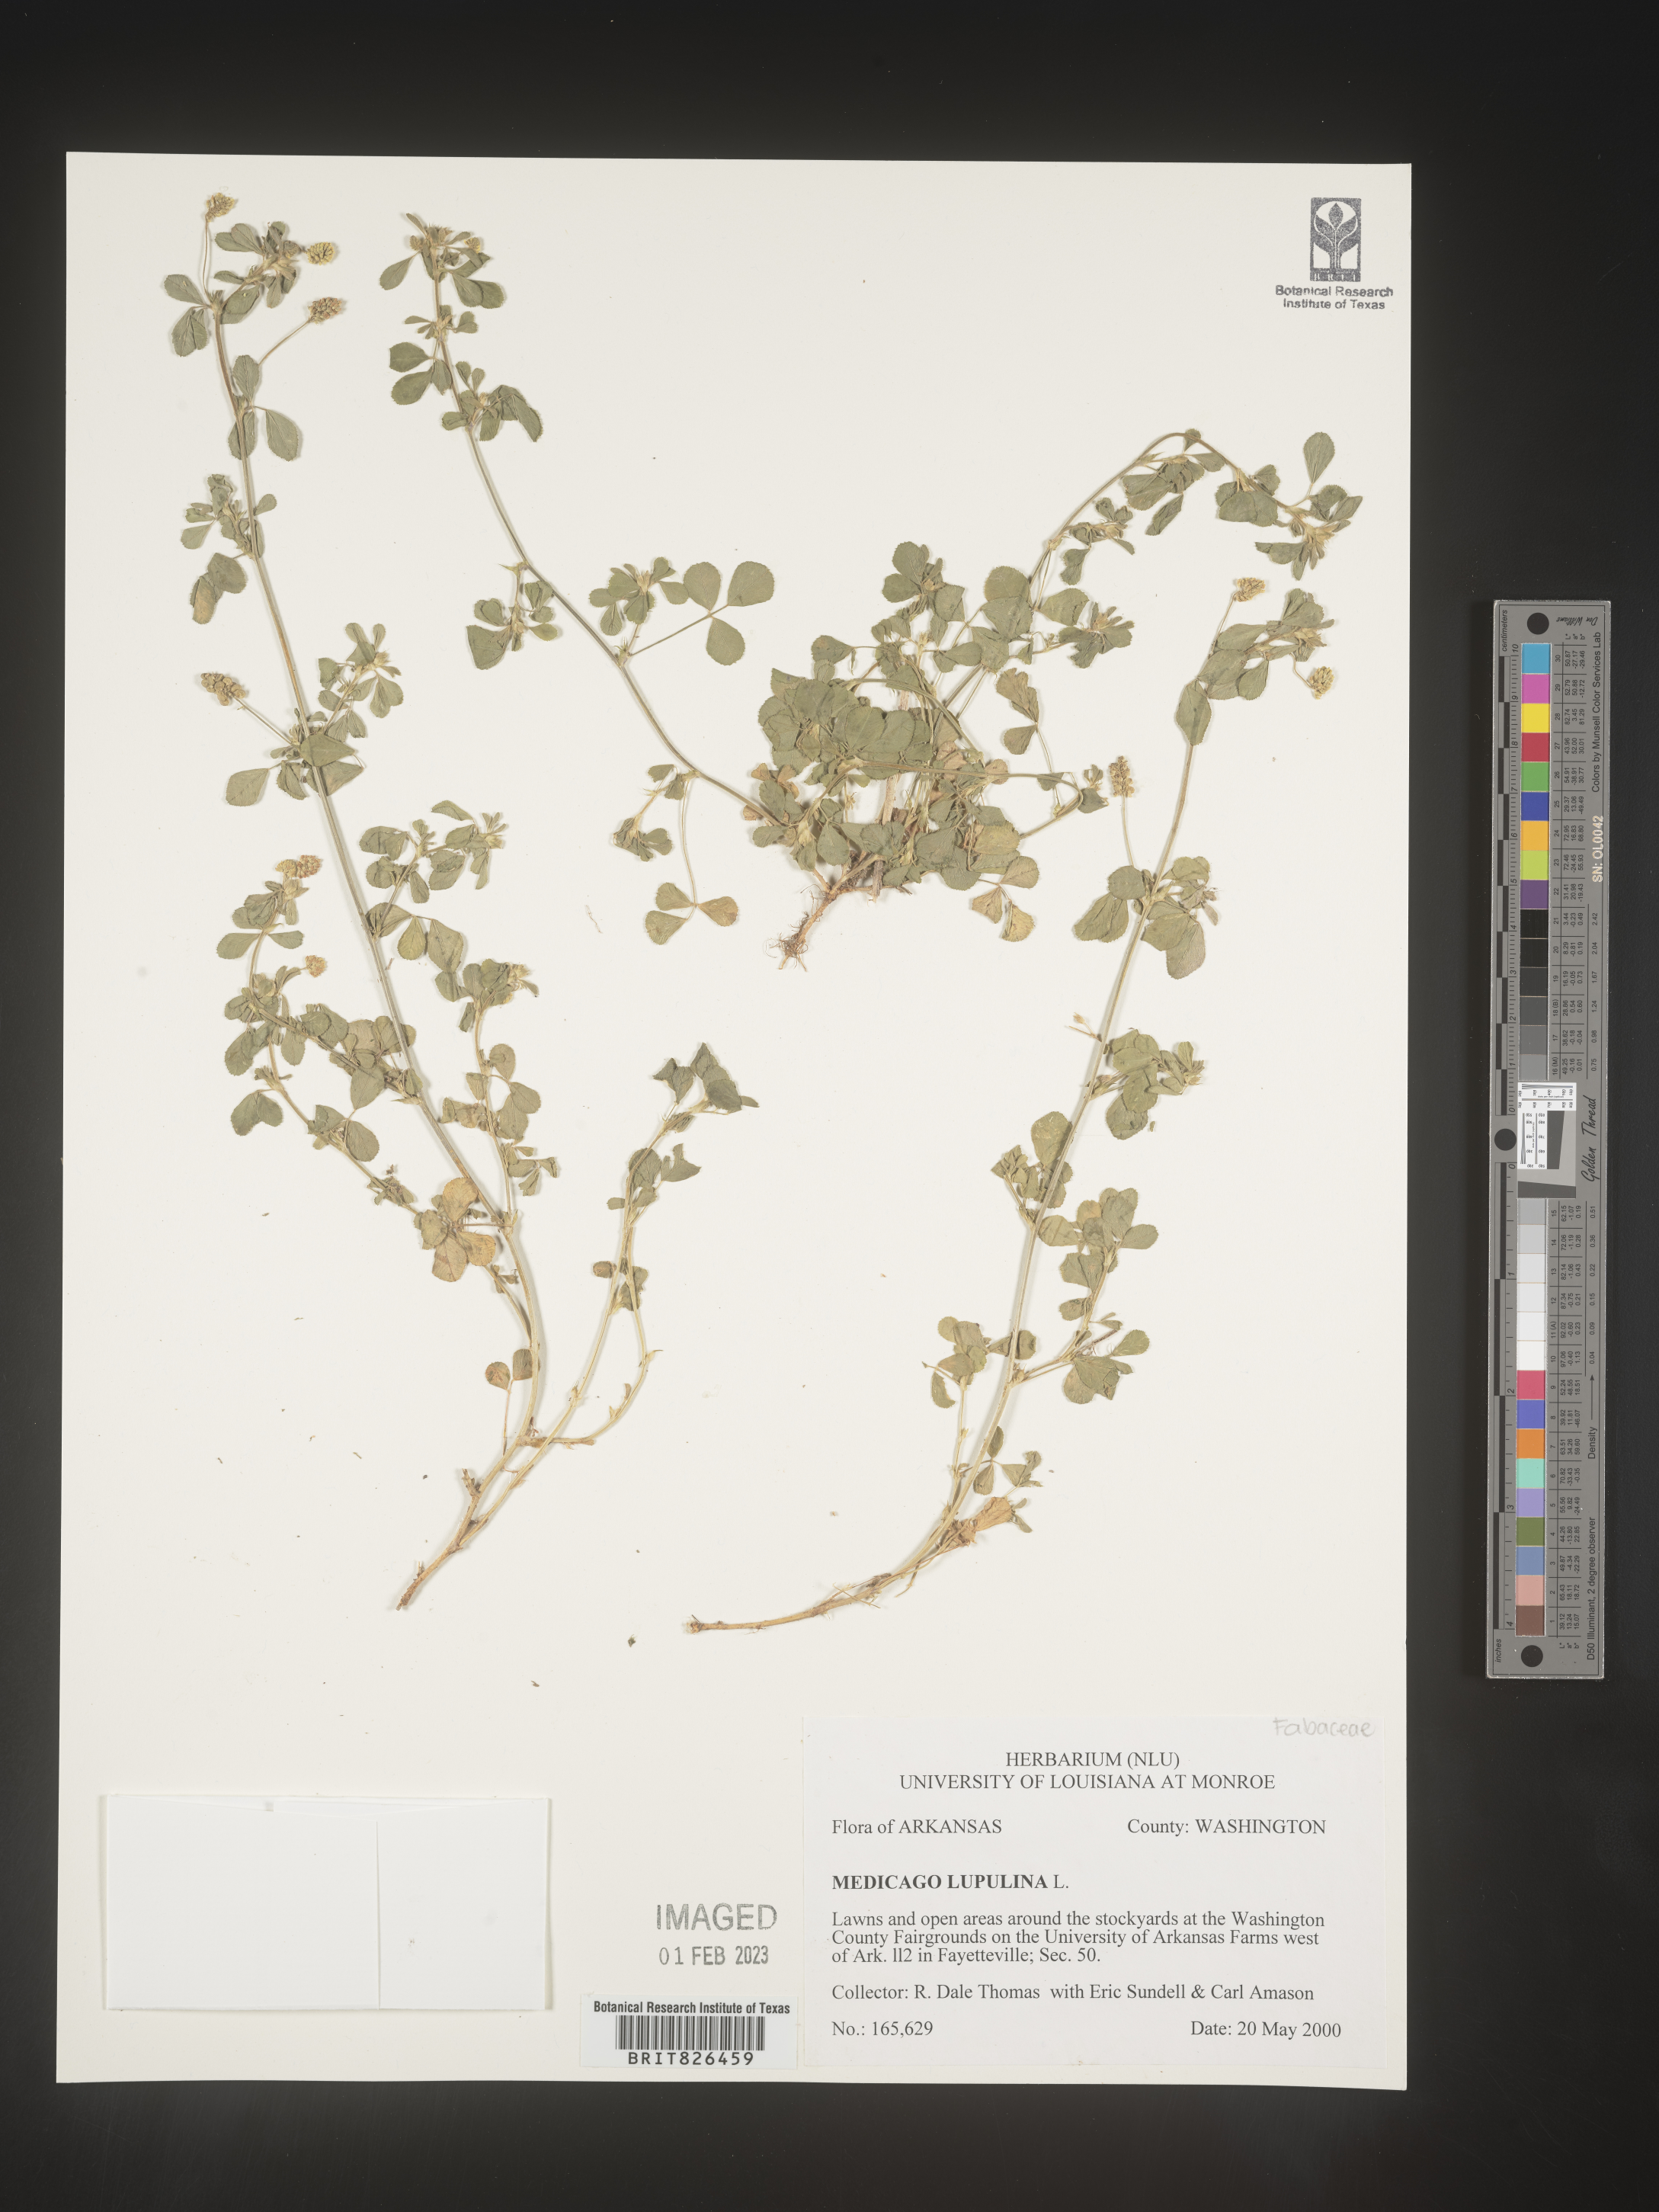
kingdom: Plantae
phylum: Tracheophyta
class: Magnoliopsida
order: Fabales
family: Fabaceae
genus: Medicago
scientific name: Medicago lupulina
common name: Black medick
